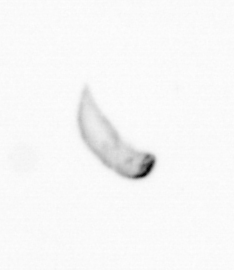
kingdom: Chromista
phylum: Ochrophyta
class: Bacillariophyceae
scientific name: Bacillariophyceae
